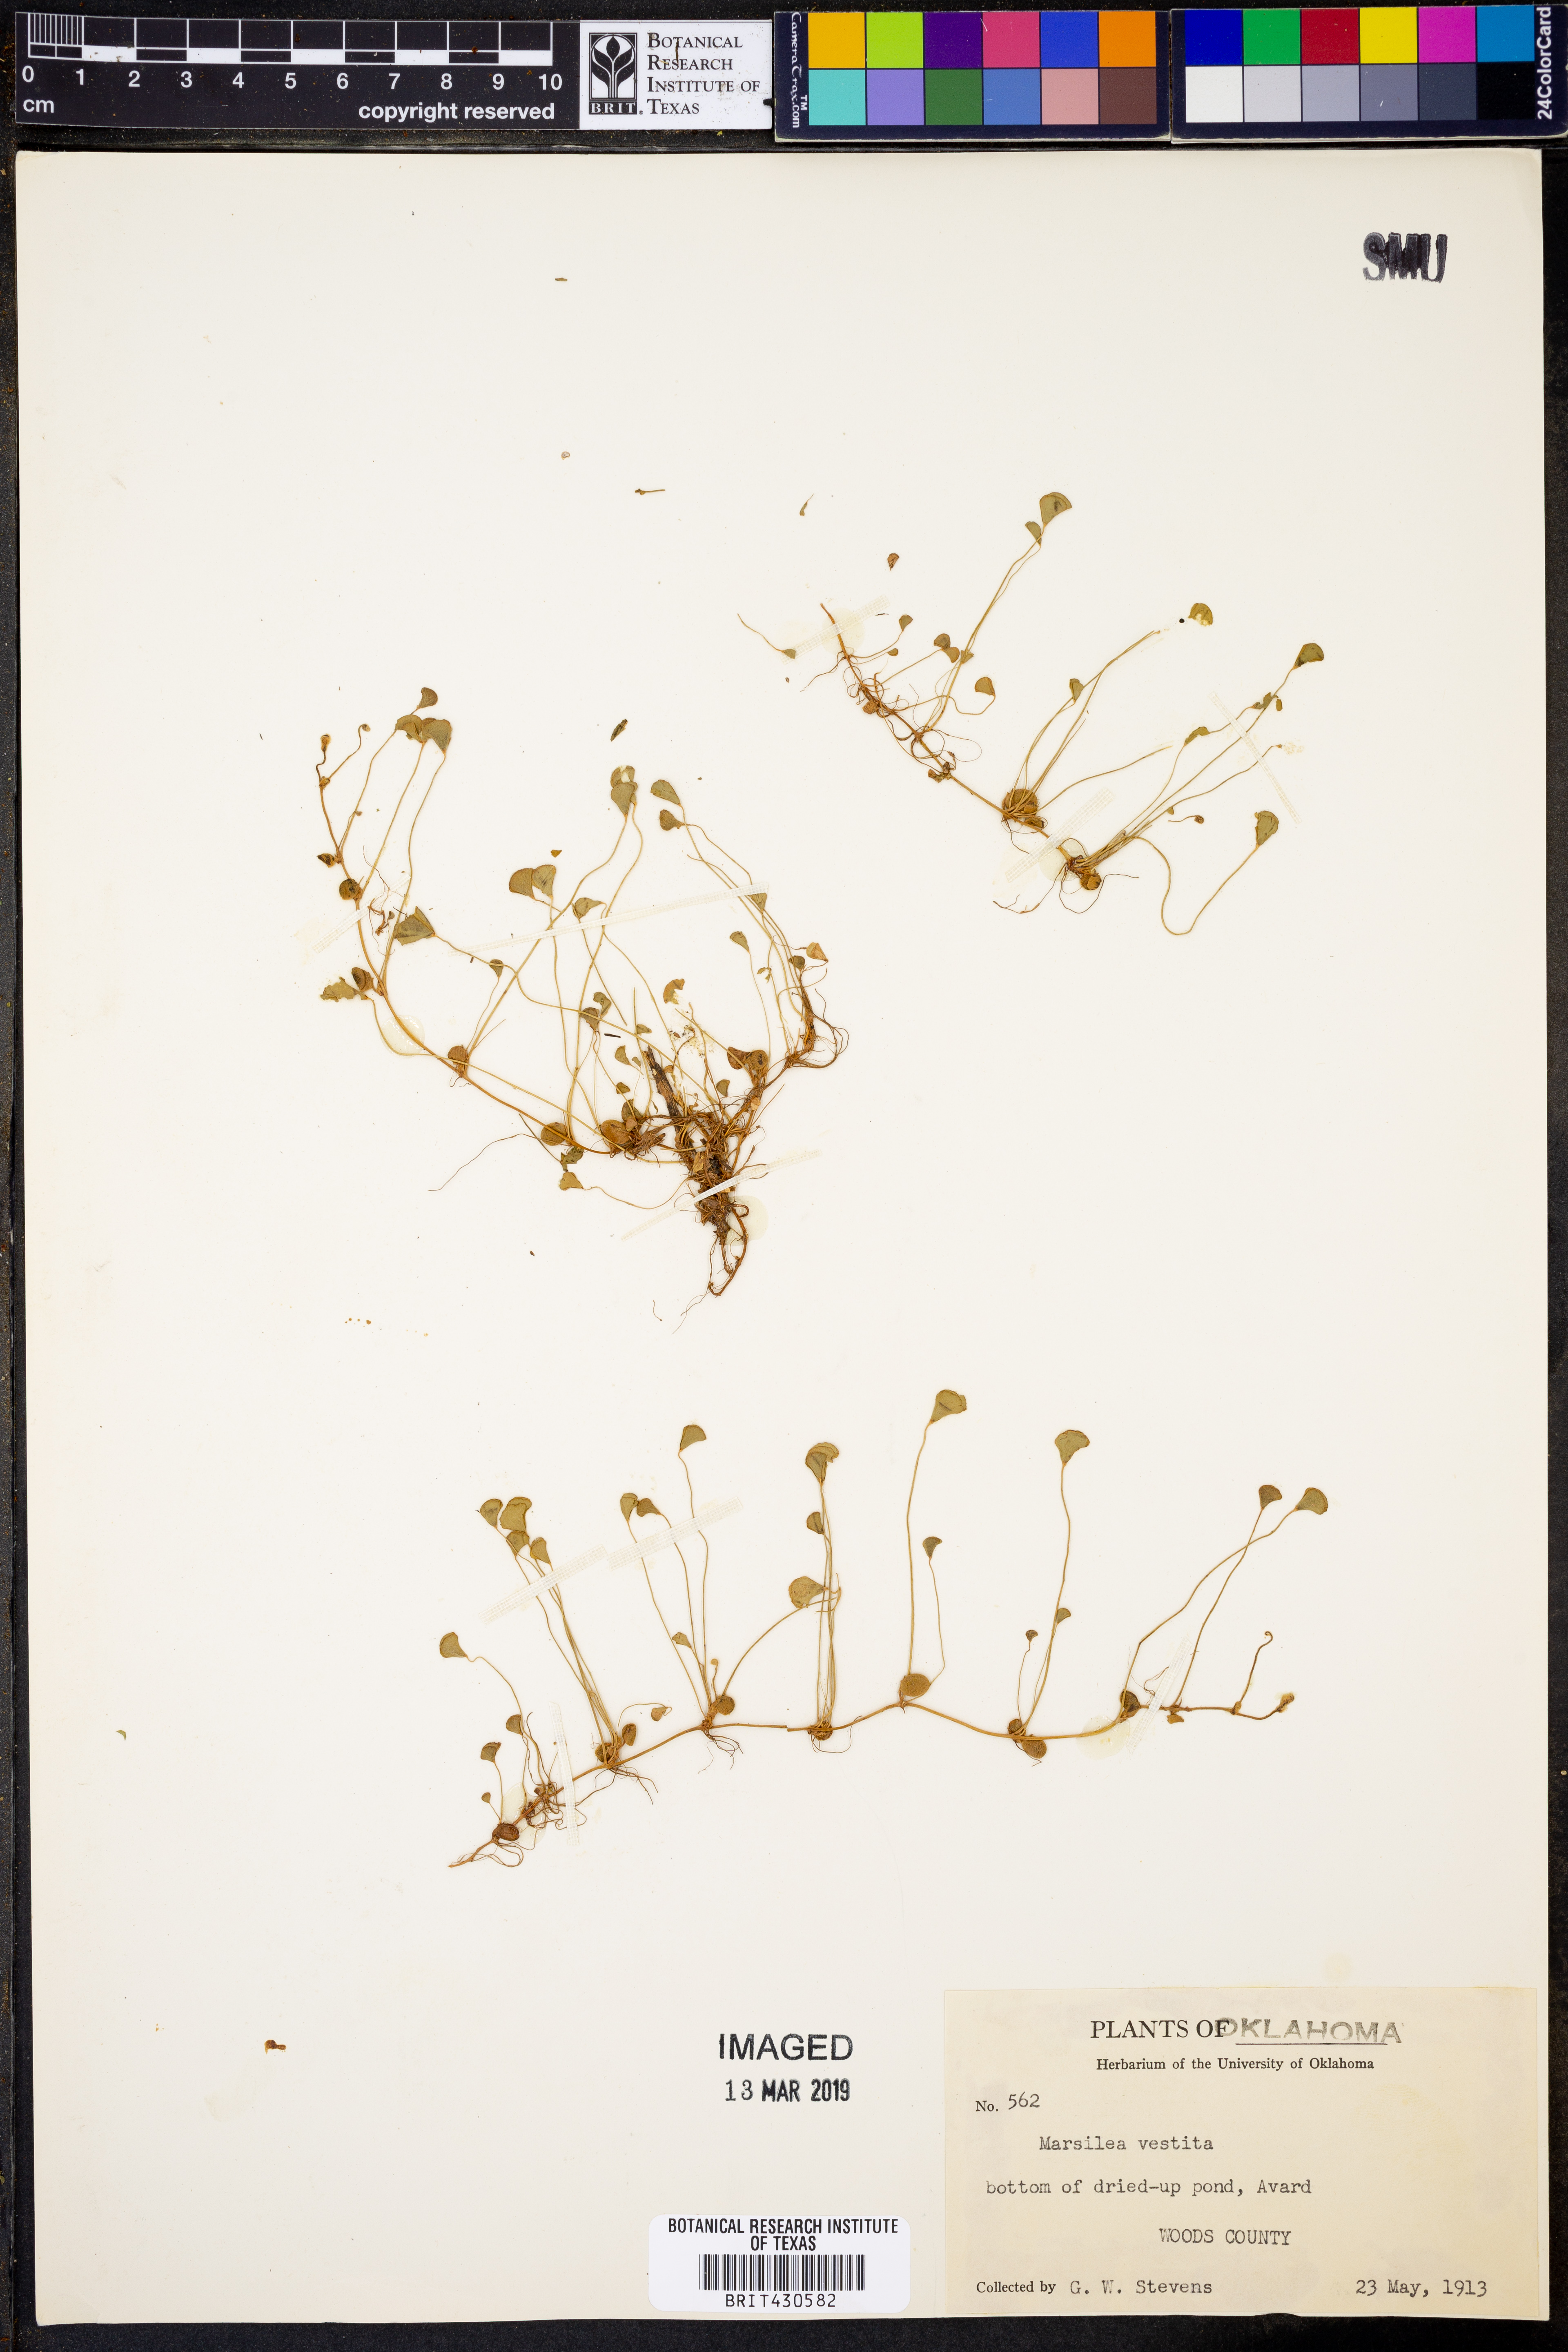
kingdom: Plantae
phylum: Tracheophyta
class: Polypodiopsida
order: Salviniales
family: Marsileaceae
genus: Marsilea
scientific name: Marsilea vestita
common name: Hooked-pepperwort
